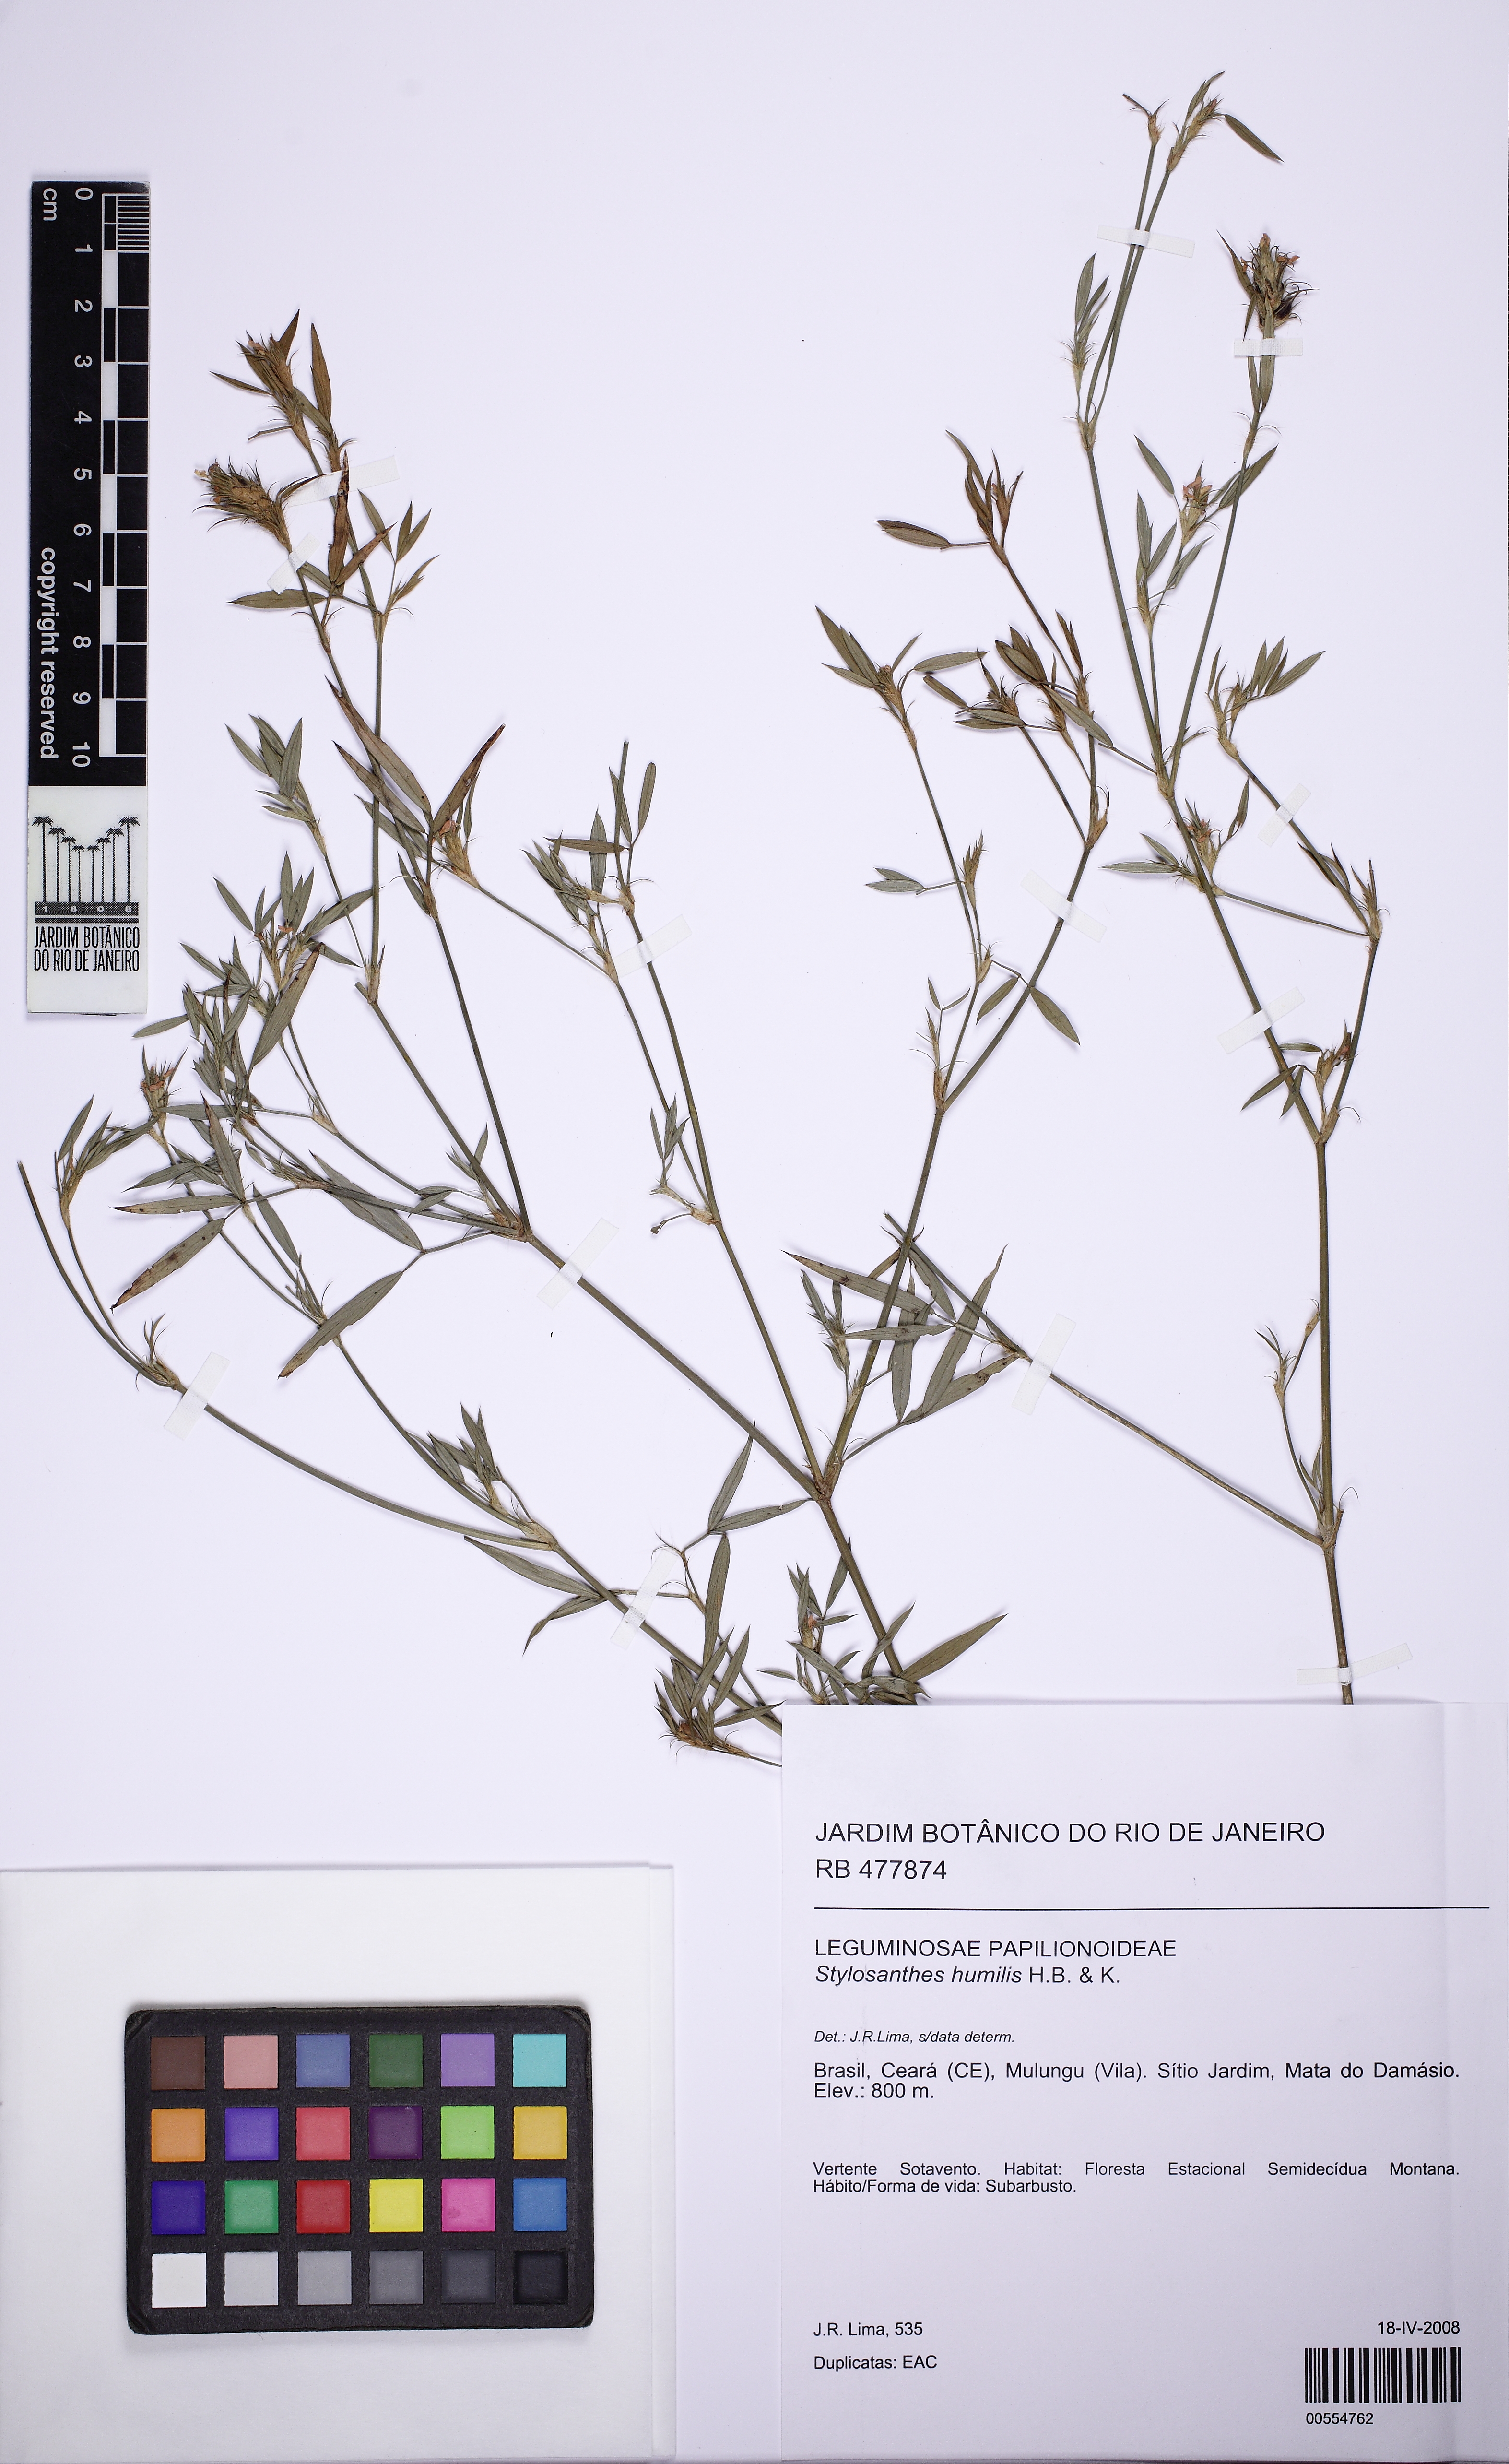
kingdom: Plantae
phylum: Tracheophyta
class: Magnoliopsida
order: Fabales
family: Fabaceae
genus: Stylosanthes
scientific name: Stylosanthes humilis
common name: Townsville stylo
